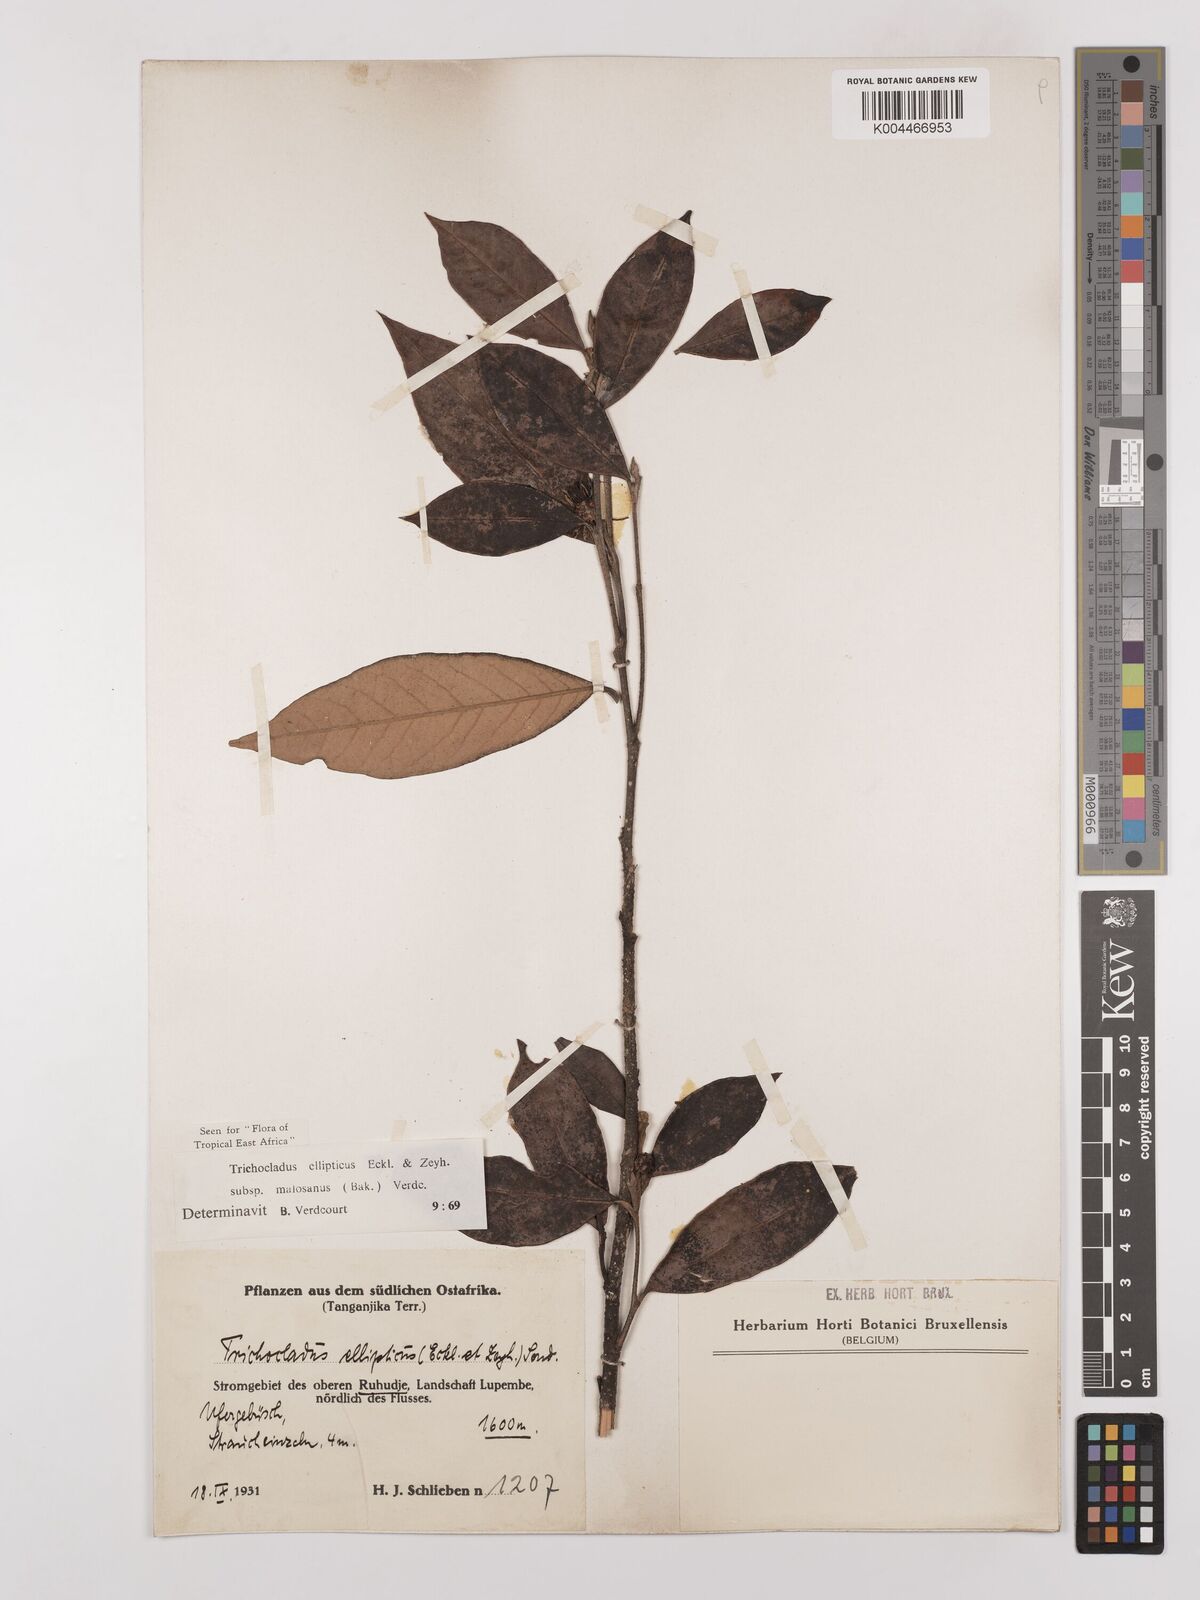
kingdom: Plantae
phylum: Tracheophyta
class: Magnoliopsida
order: Saxifragales
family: Hamamelidaceae
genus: Trichocladus
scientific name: Trichocladus ellipticus
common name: White witch-hazel
